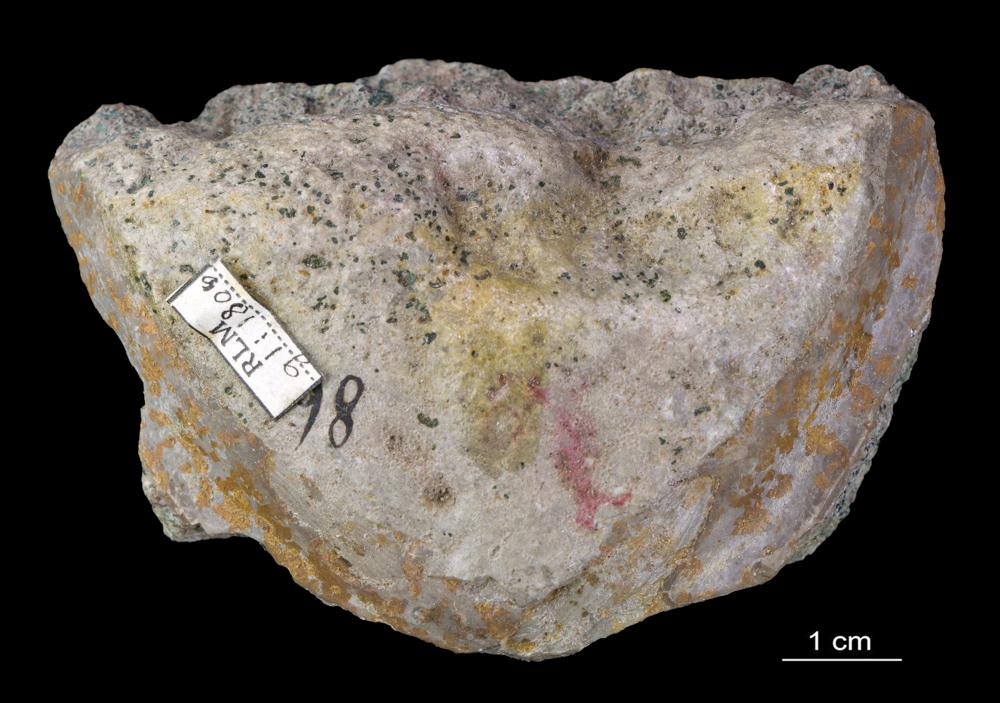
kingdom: Animalia
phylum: Arthropoda
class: Trilobita
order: Asaphida
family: Asaphidae
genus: Ptychopyge
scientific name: Ptychopyge
